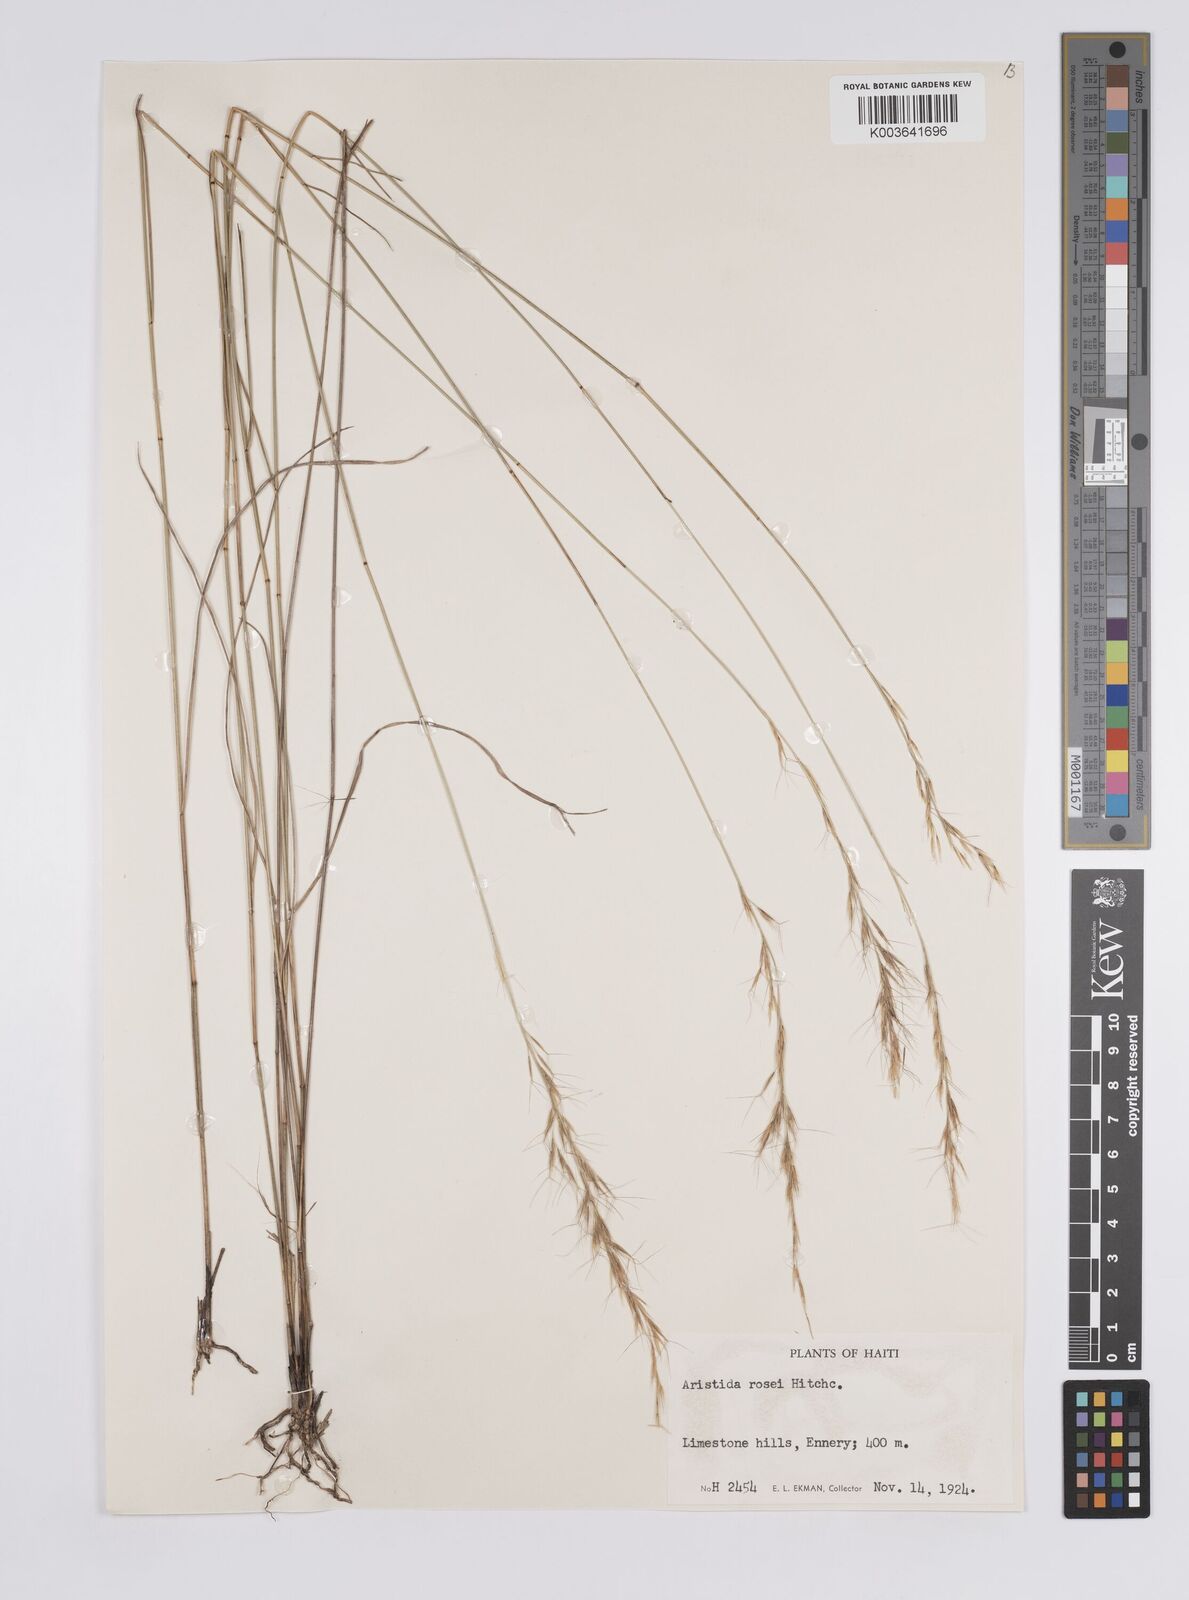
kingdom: Plantae
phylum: Tracheophyta
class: Liliopsida
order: Poales
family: Poaceae
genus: Aristida
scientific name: Aristida rosei
